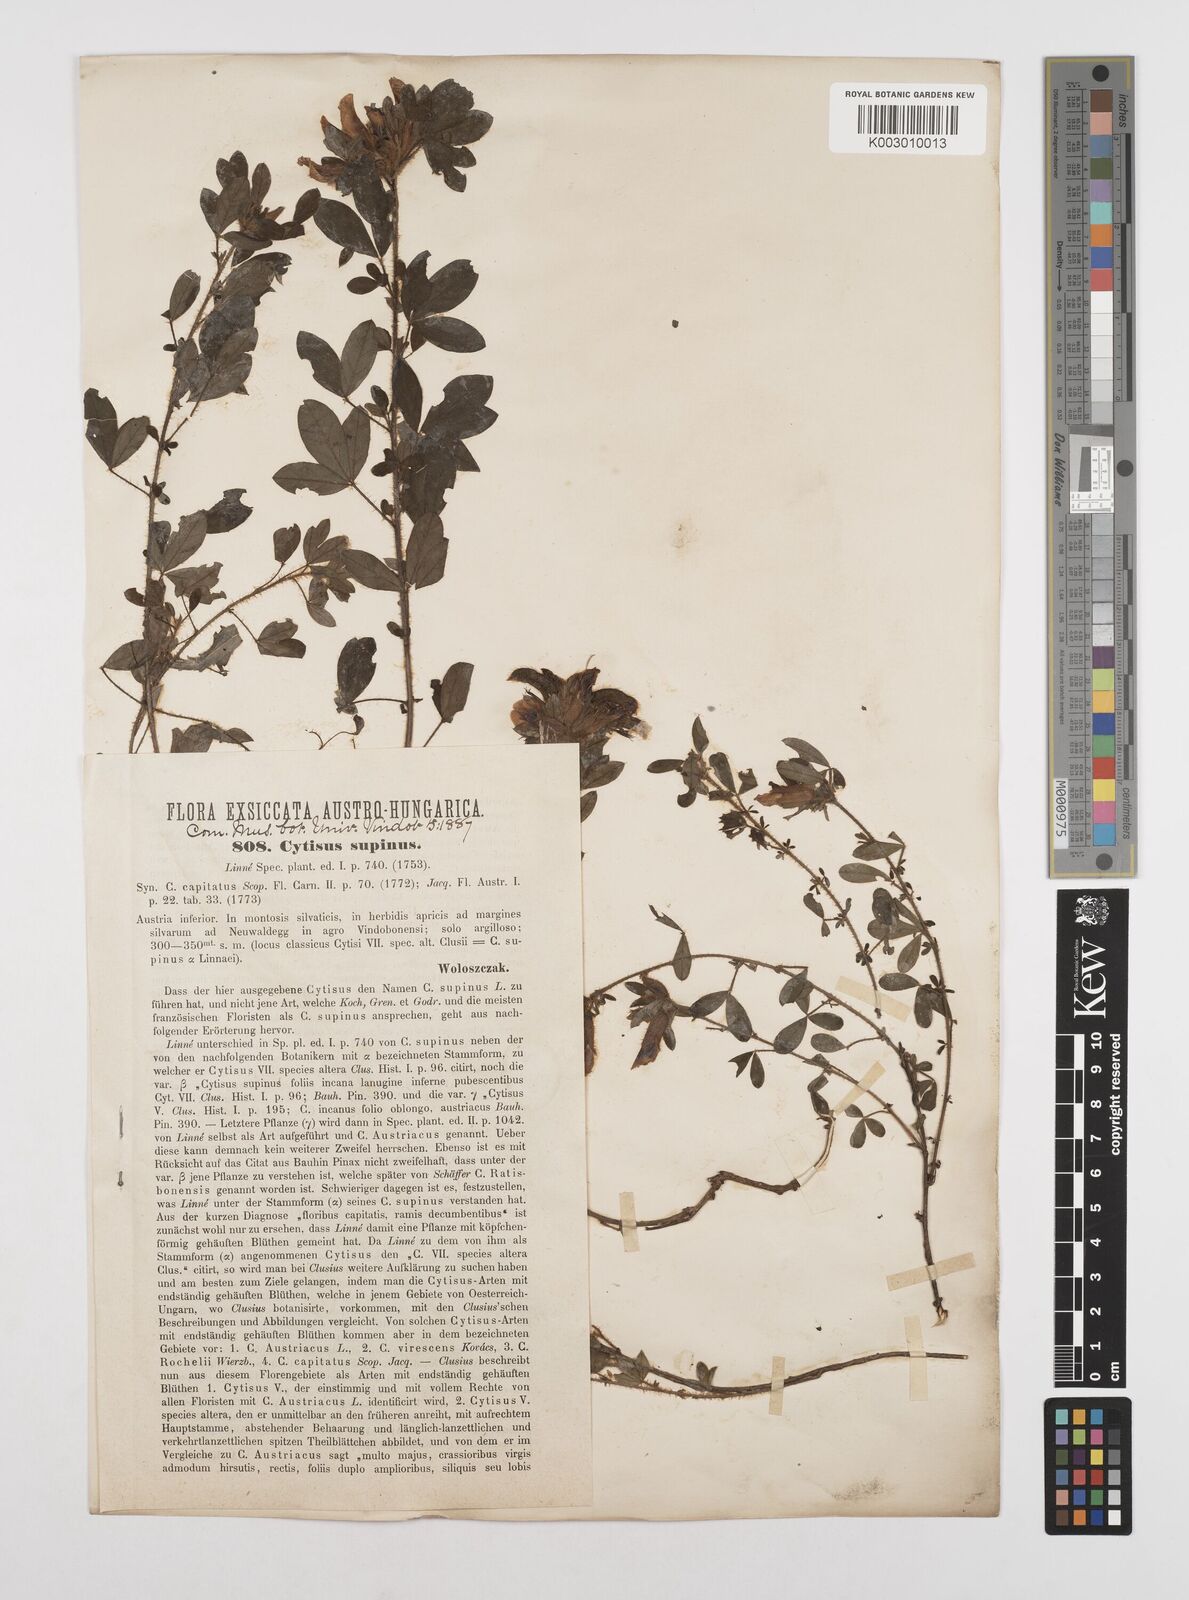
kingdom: Plantae
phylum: Tracheophyta
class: Magnoliopsida
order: Fabales
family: Fabaceae
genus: Chamaecytisus
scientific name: Chamaecytisus hirsutus
